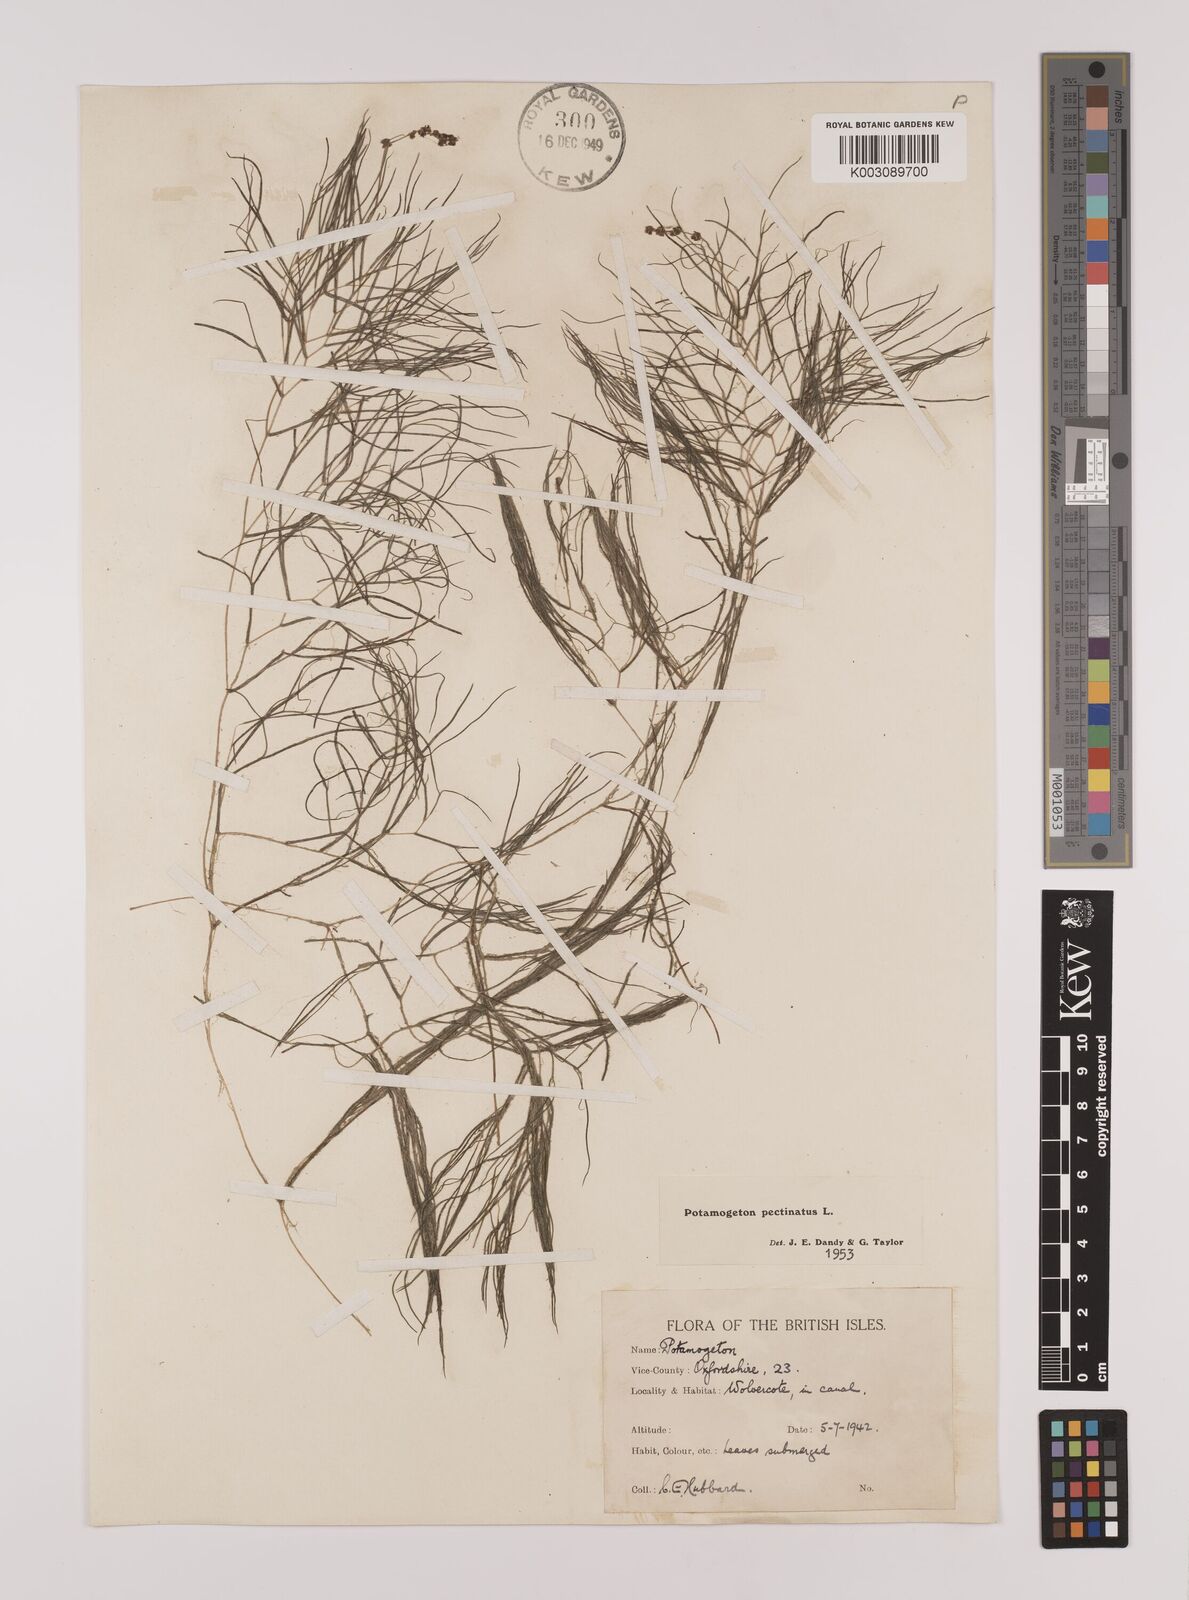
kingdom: Plantae
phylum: Tracheophyta
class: Liliopsida
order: Alismatales
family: Potamogetonaceae
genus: Stuckenia
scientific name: Stuckenia pectinata
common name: Sago pondweed
